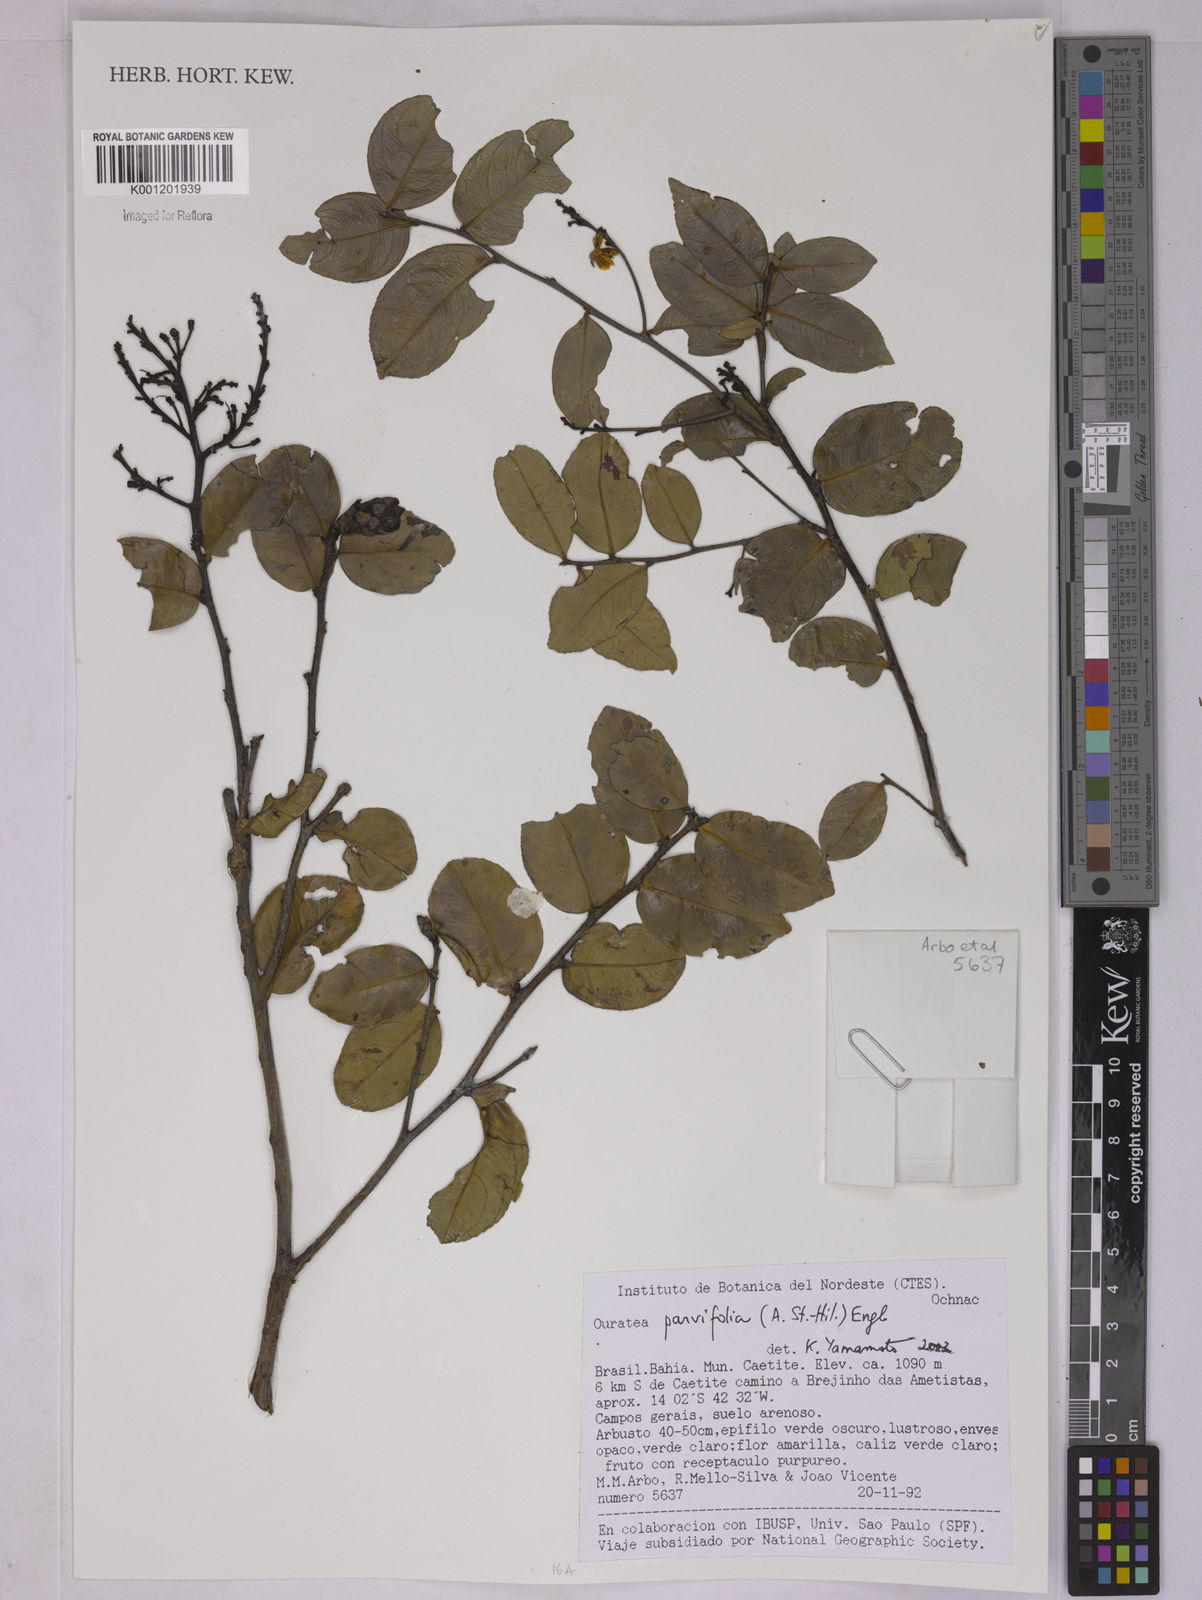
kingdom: Plantae
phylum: Tracheophyta
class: Magnoliopsida
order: Malpighiales
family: Ochnaceae
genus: Ouratea
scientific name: Ouratea parvifolia
